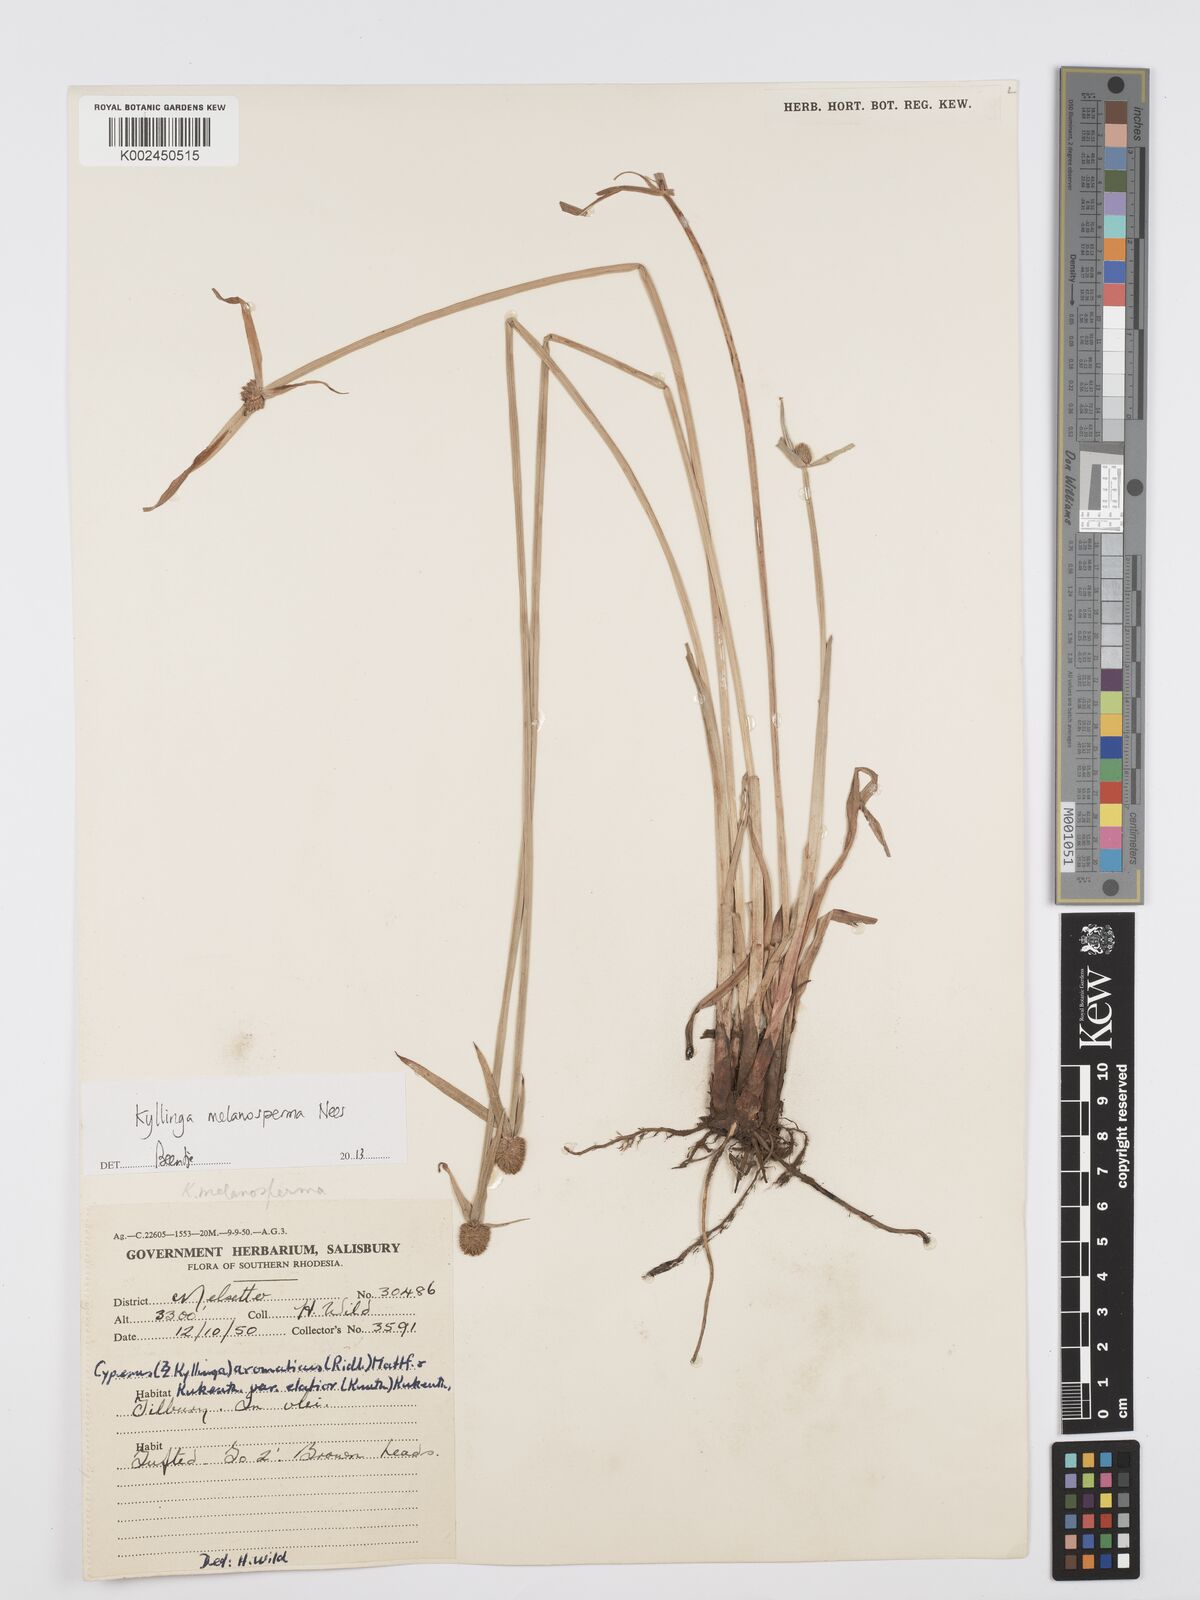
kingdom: Plantae
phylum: Tracheophyta
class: Liliopsida
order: Poales
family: Cyperaceae
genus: Cyperus
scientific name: Cyperus melanospermus
